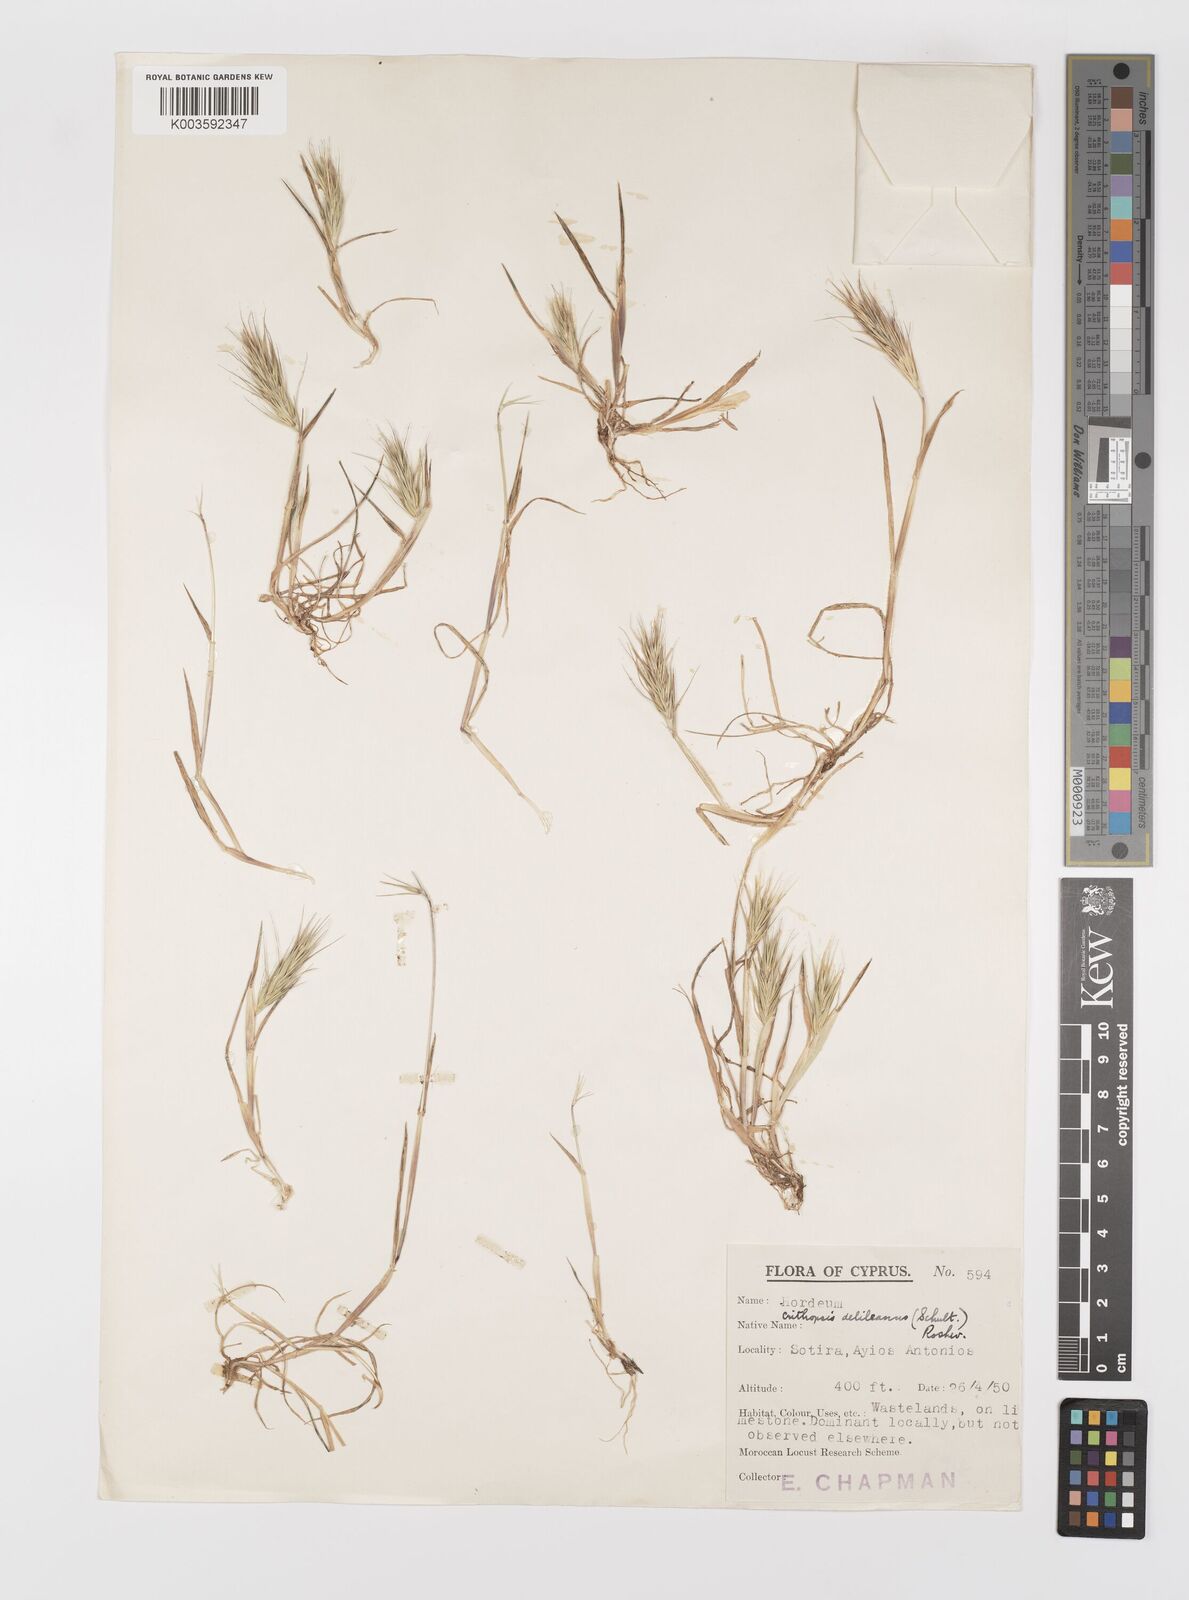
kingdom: Plantae
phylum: Tracheophyta
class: Liliopsida
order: Poales
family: Poaceae
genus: Crithopsis
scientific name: Crithopsis delileana
